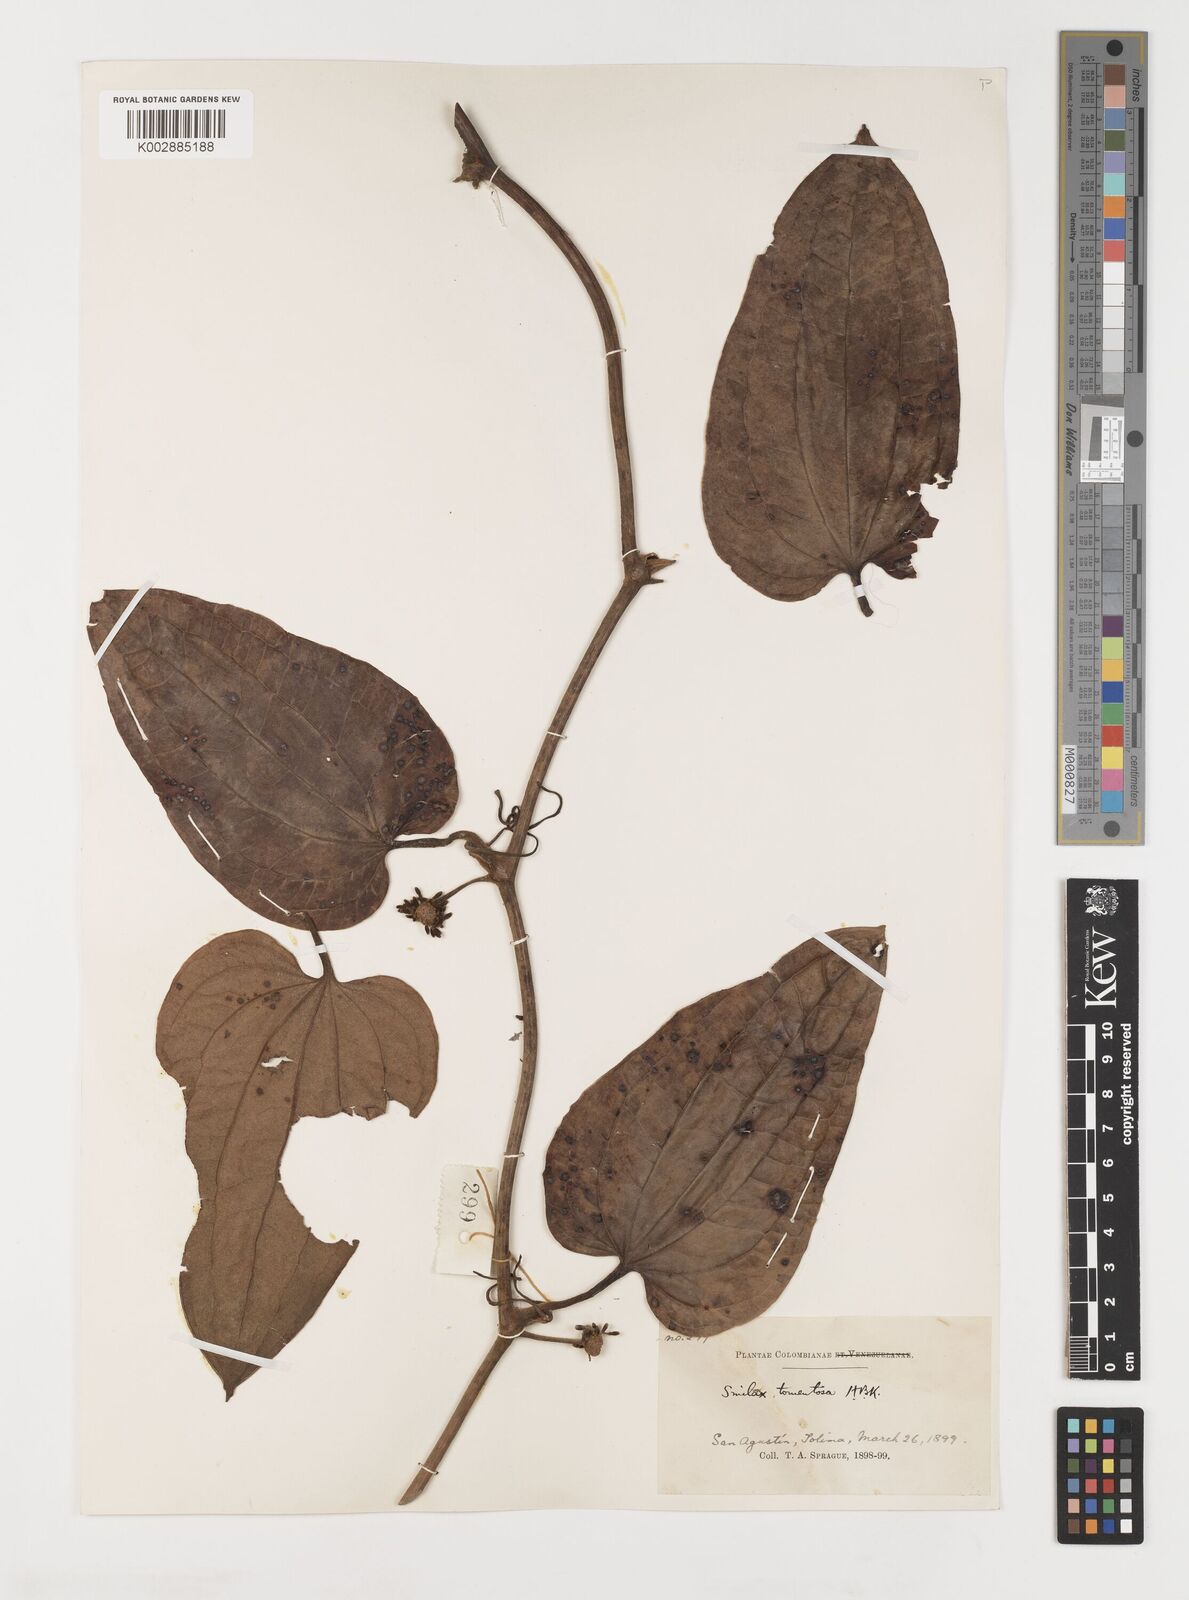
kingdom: Plantae
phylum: Tracheophyta
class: Liliopsida
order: Liliales
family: Smilacaceae
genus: Smilax
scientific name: Smilax tomentosa
